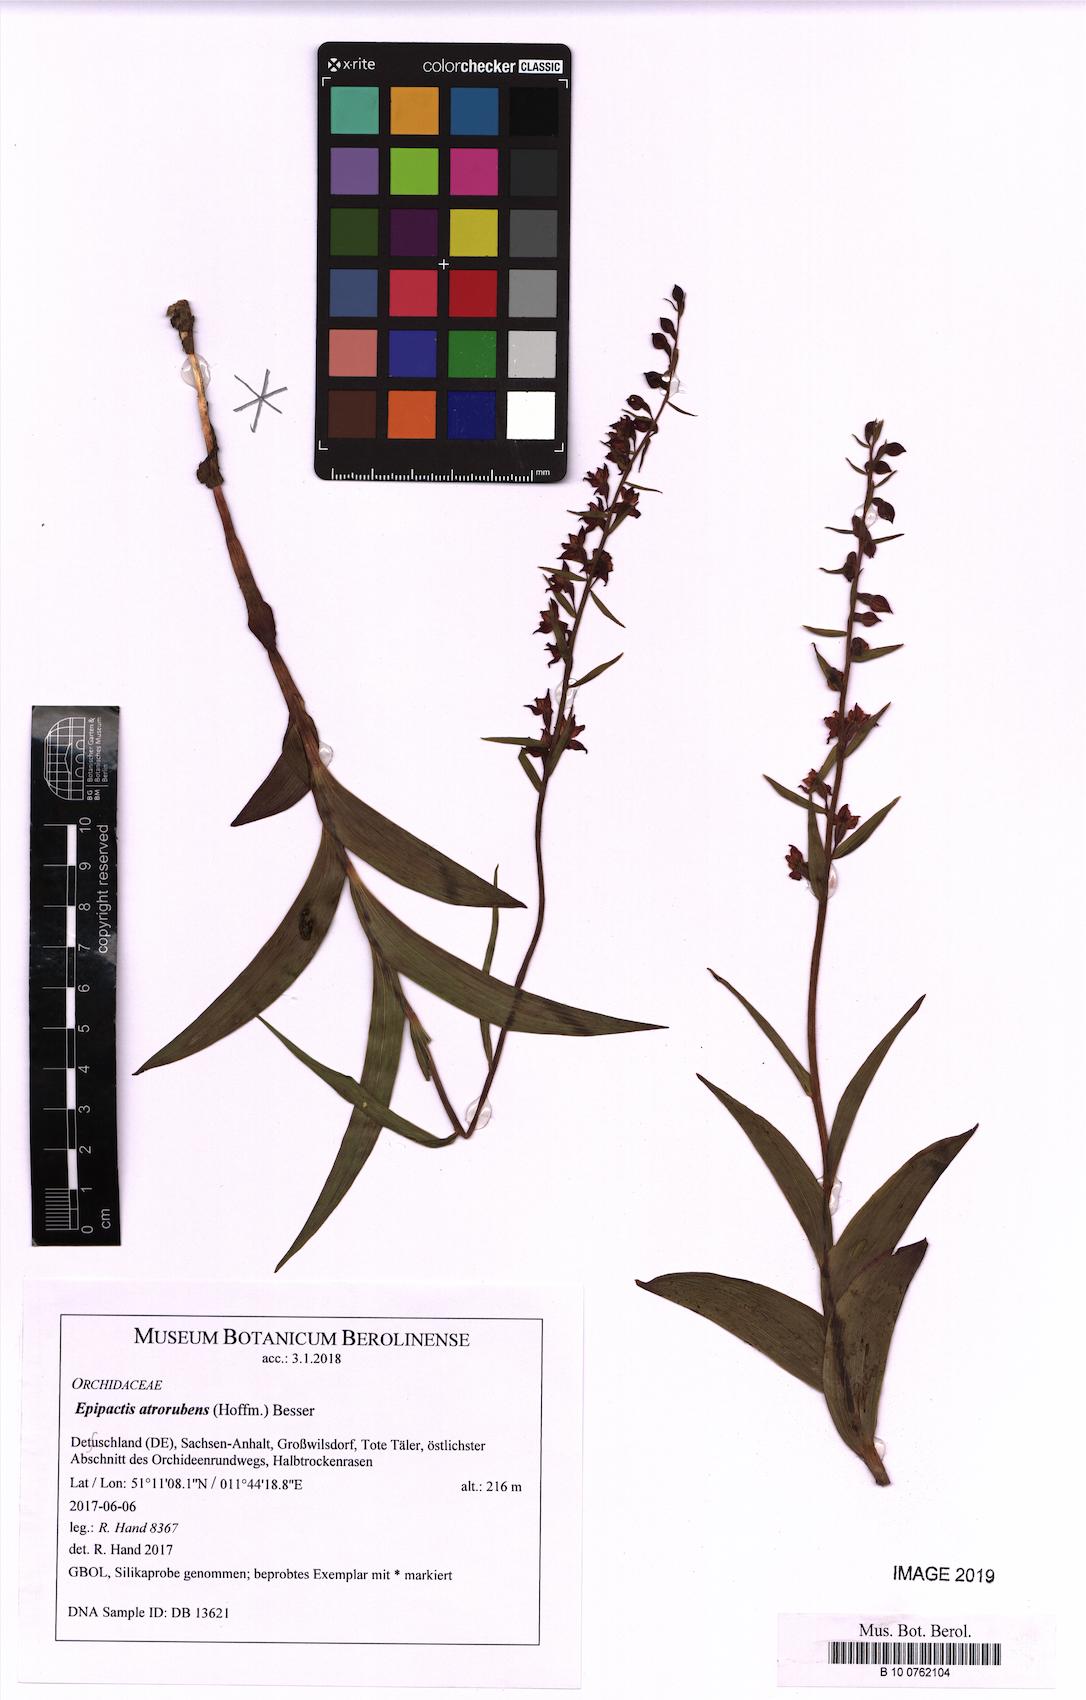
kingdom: Plantae
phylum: Tracheophyta
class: Liliopsida
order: Asparagales
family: Orchidaceae
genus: Epipactis
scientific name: Epipactis atrorubens
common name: Dark-red helleborine
